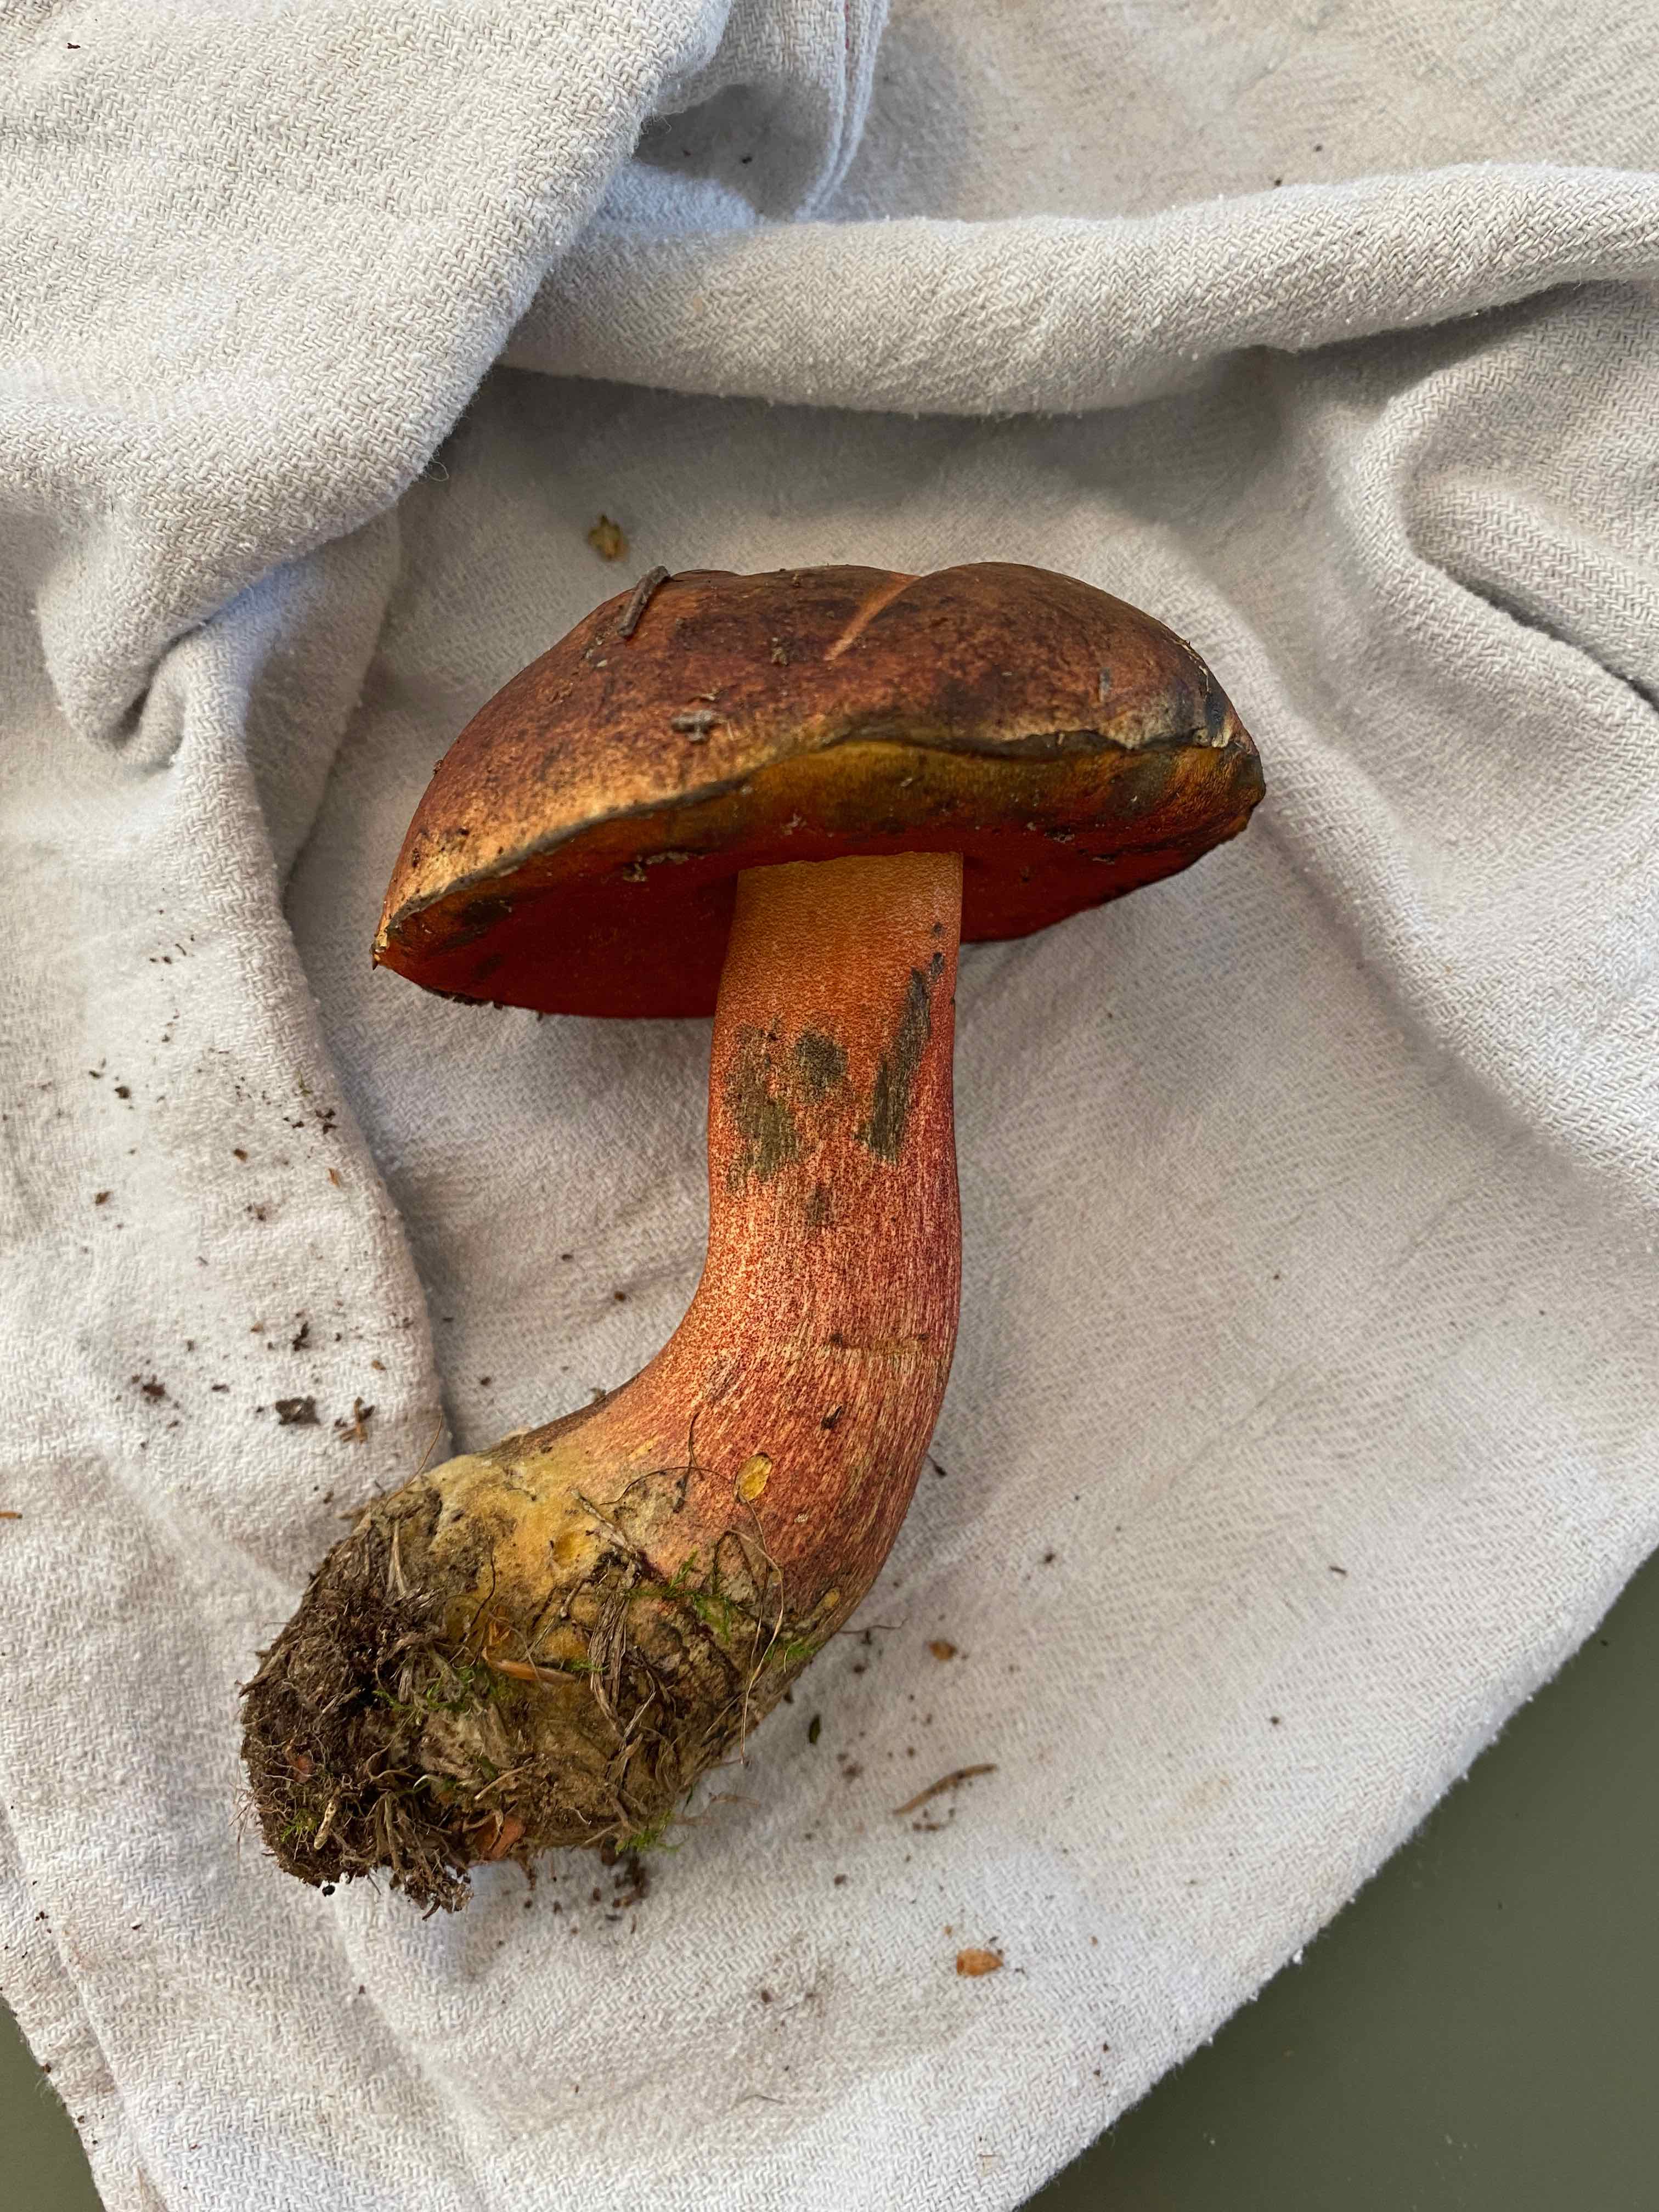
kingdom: Fungi
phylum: Basidiomycota
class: Agaricomycetes
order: Boletales
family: Boletaceae
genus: Neoboletus
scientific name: Neoboletus erythropus
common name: punktstokket indigorørhat
